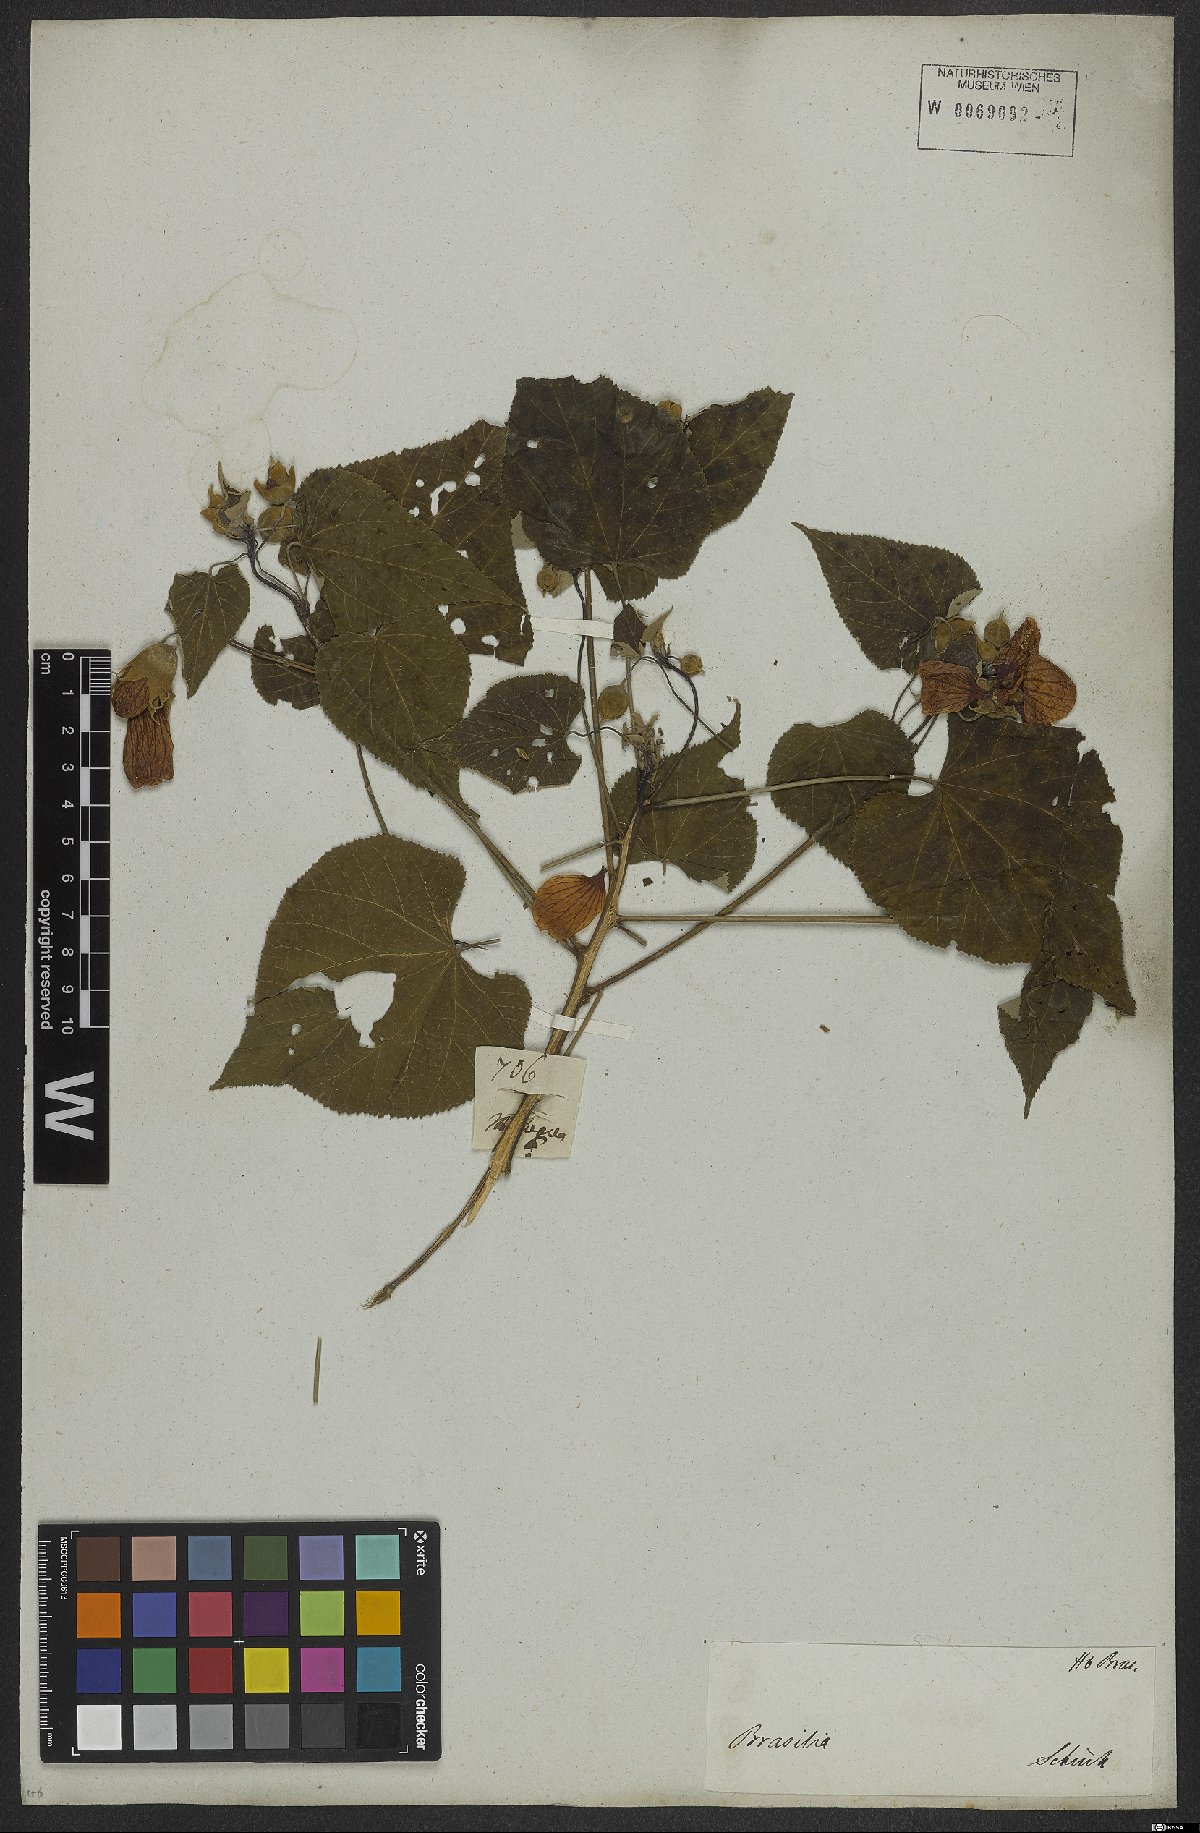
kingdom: Plantae
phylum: Tracheophyta
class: Magnoliopsida
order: Malvales
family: Malvaceae
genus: Callianthe
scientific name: Callianthe bedfordiana
